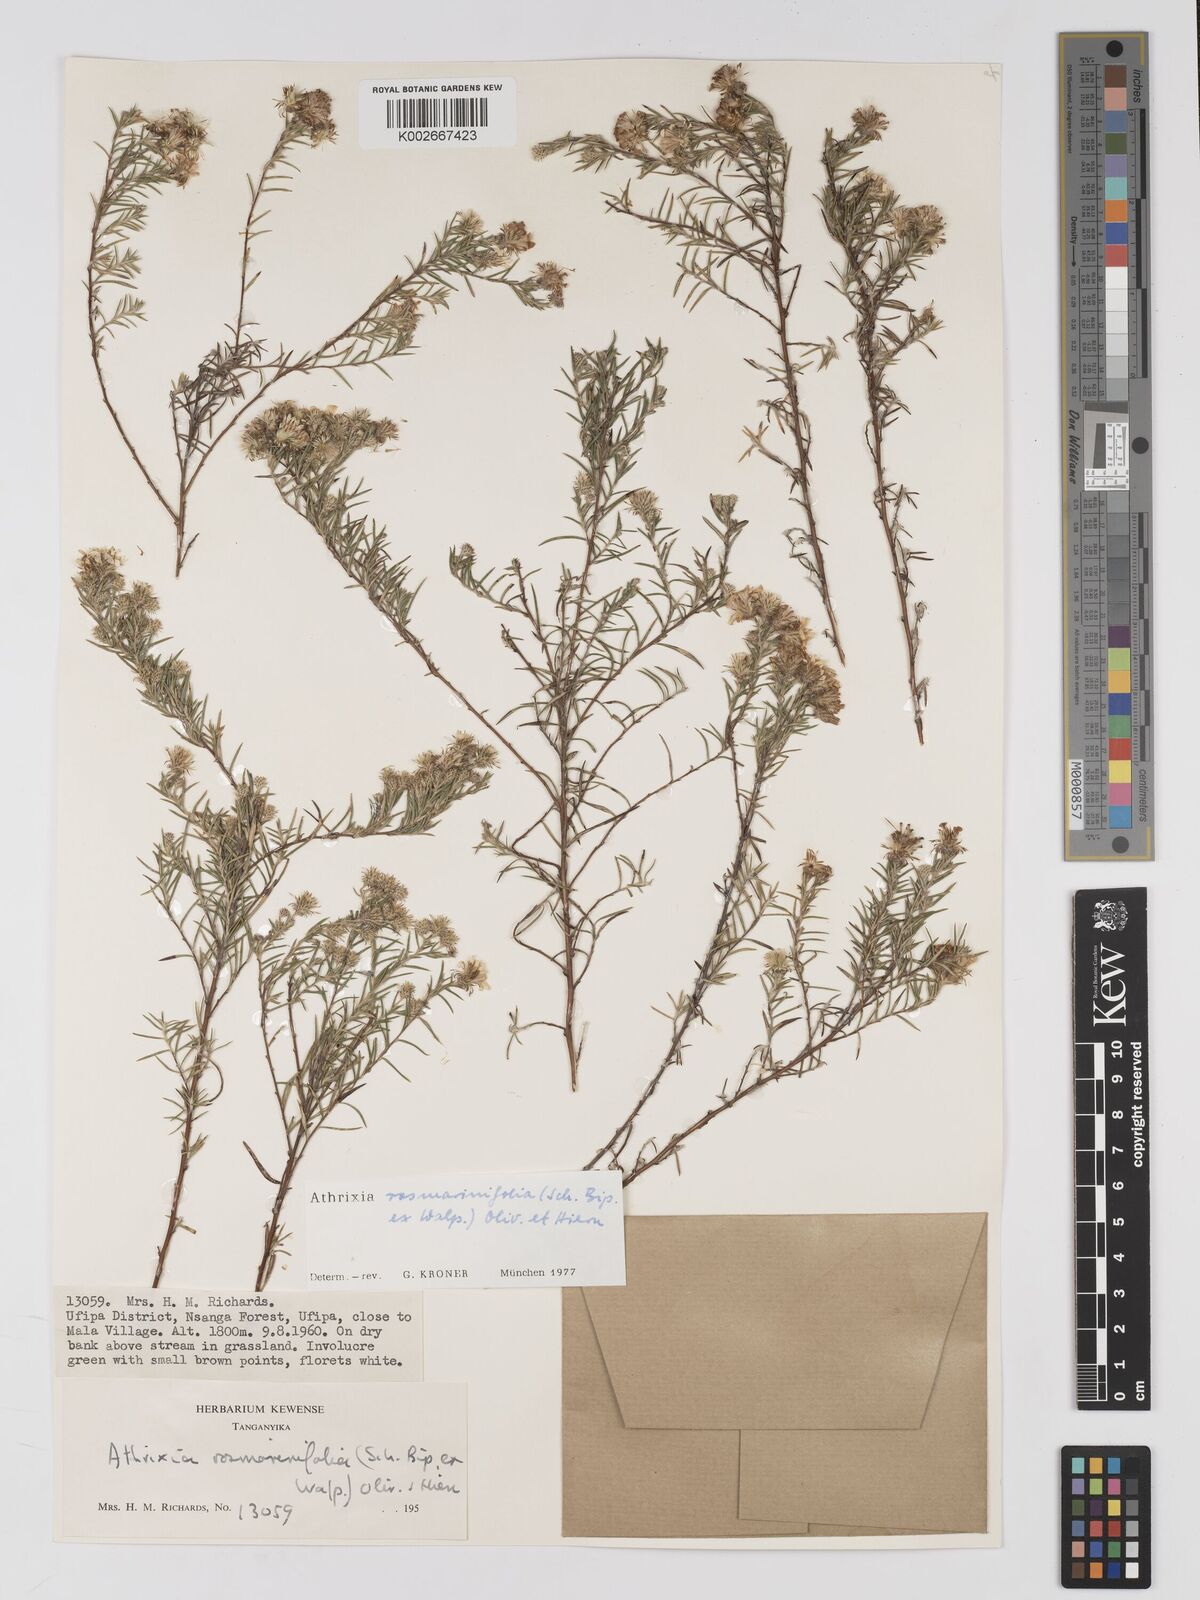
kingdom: Plantae
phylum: Tracheophyta
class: Magnoliopsida
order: Asterales
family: Asteraceae
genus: Athrixia
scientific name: Athrixia rosmarinifolia
